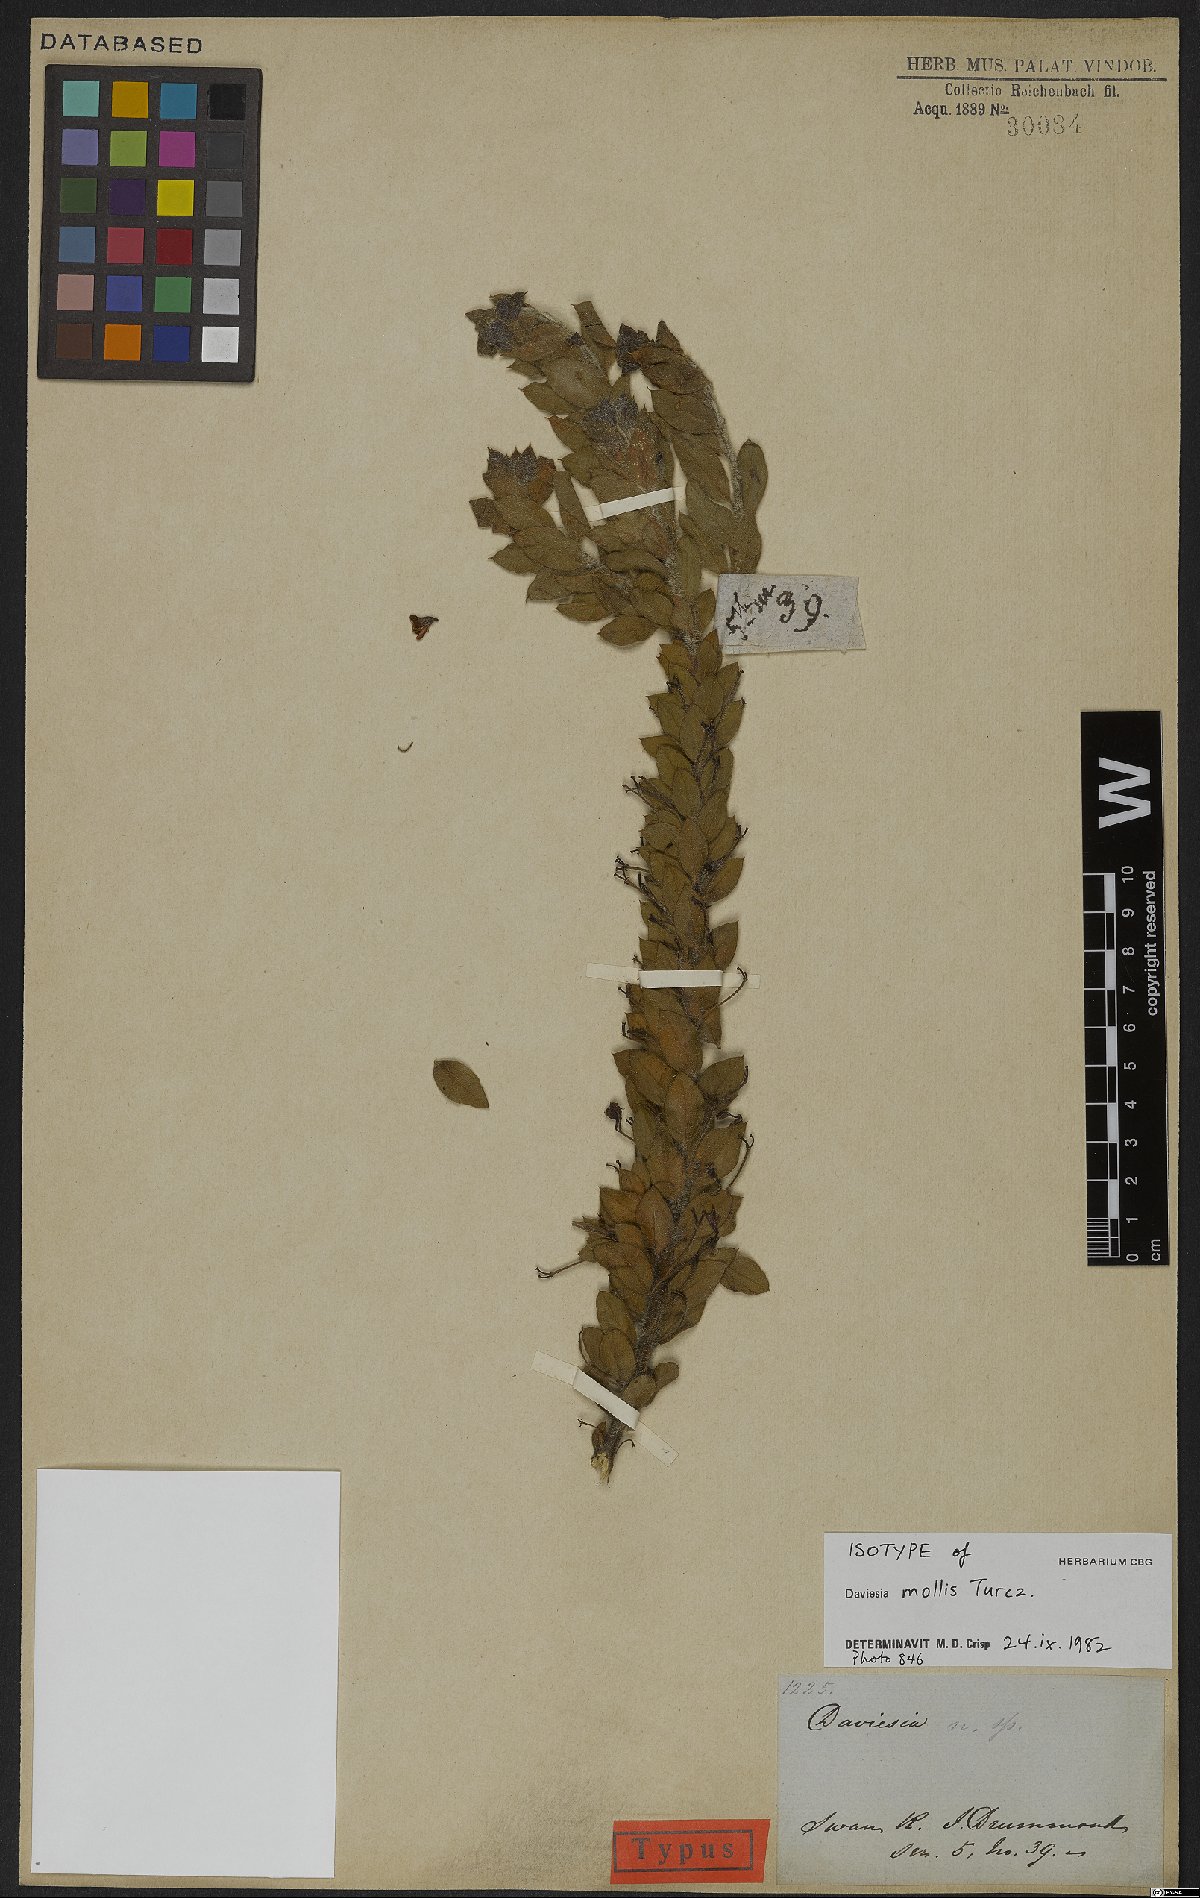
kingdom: Plantae
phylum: Tracheophyta
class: Magnoliopsida
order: Fabales
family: Fabaceae
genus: Daviesia
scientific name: Daviesia mollis
